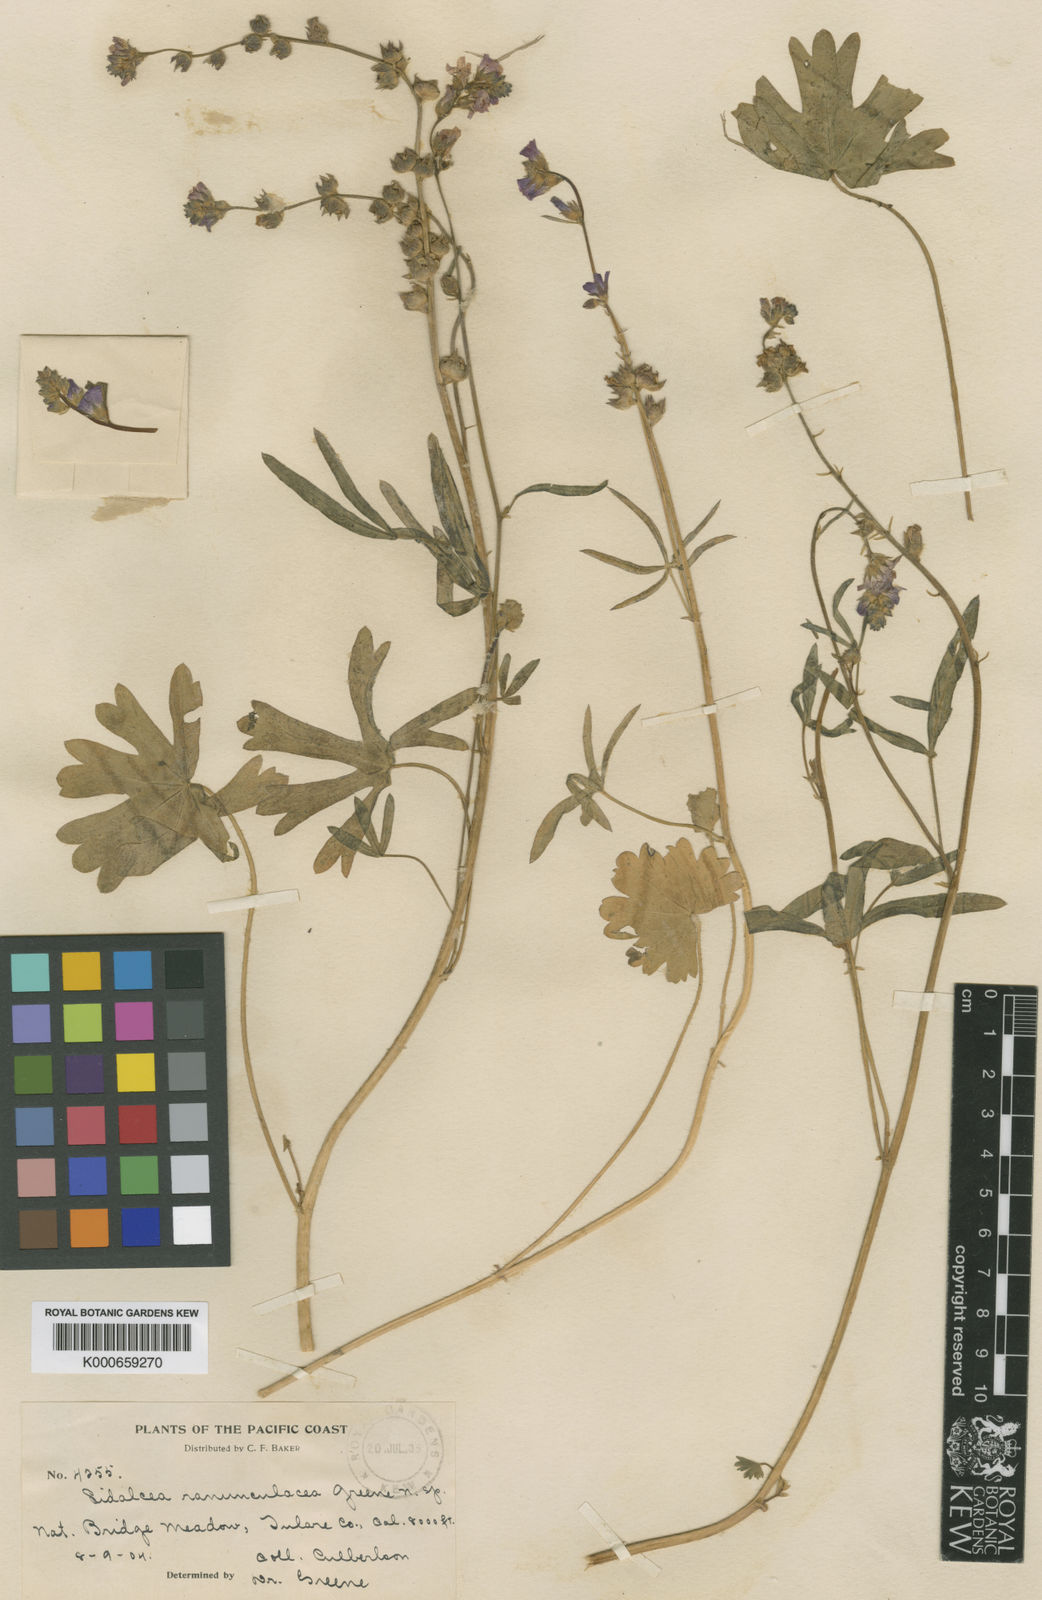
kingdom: Plantae
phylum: Tracheophyta
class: Magnoliopsida
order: Malvales
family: Malvaceae
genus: Sidalcea
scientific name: Sidalcea ranunculacea
